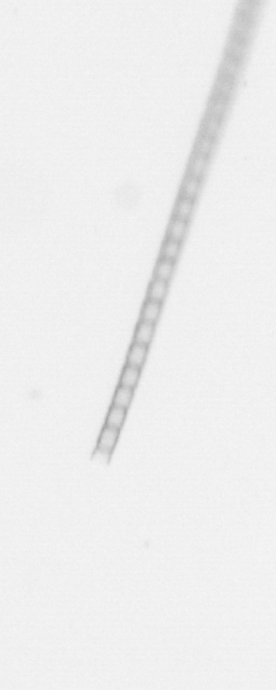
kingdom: Chromista
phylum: Ochrophyta
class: Bacillariophyceae
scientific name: Bacillariophyceae
